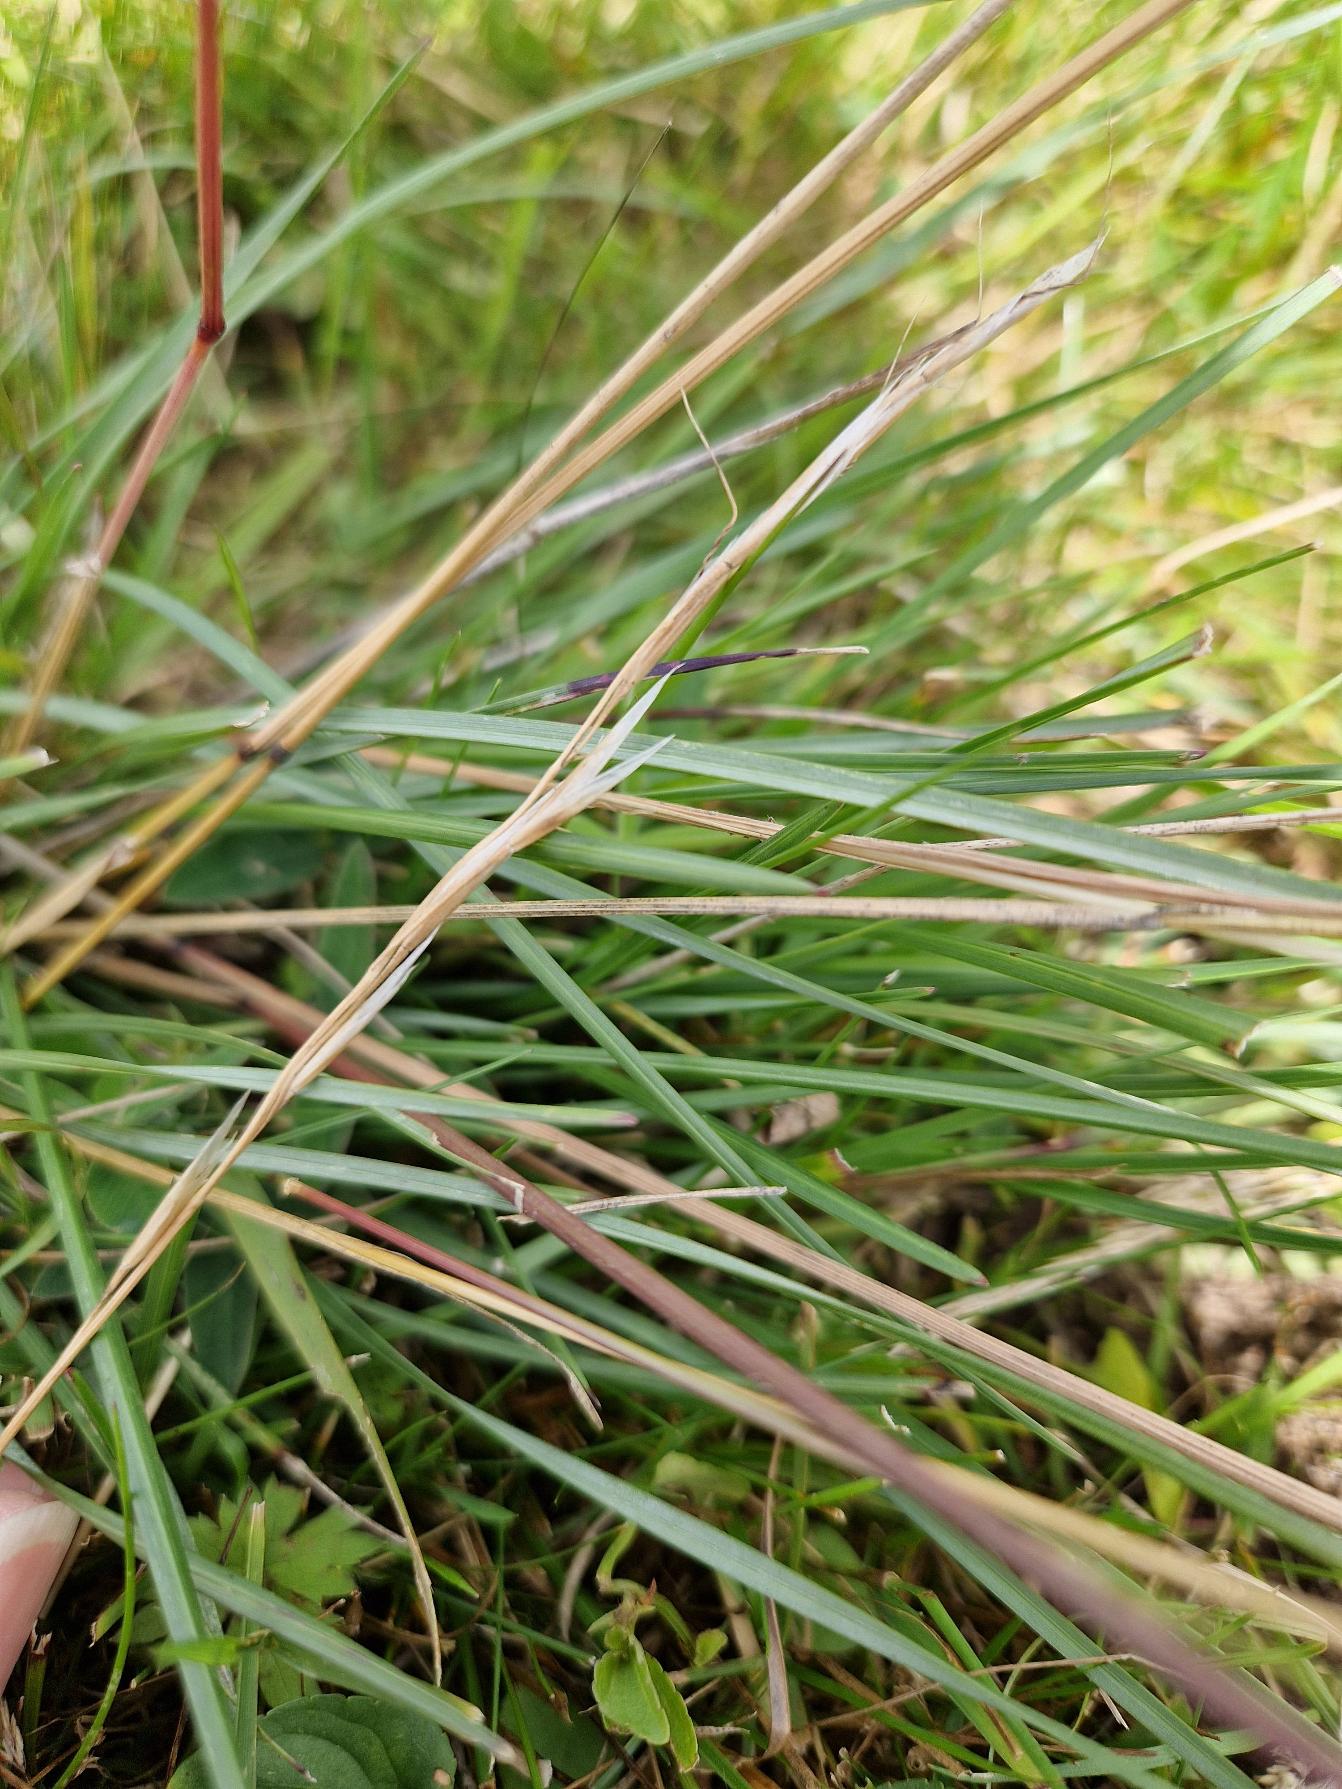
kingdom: Plantae
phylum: Tracheophyta
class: Liliopsida
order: Poales
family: Poaceae
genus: Helictochloa
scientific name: Helictochloa pratensis
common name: Eng-havre
